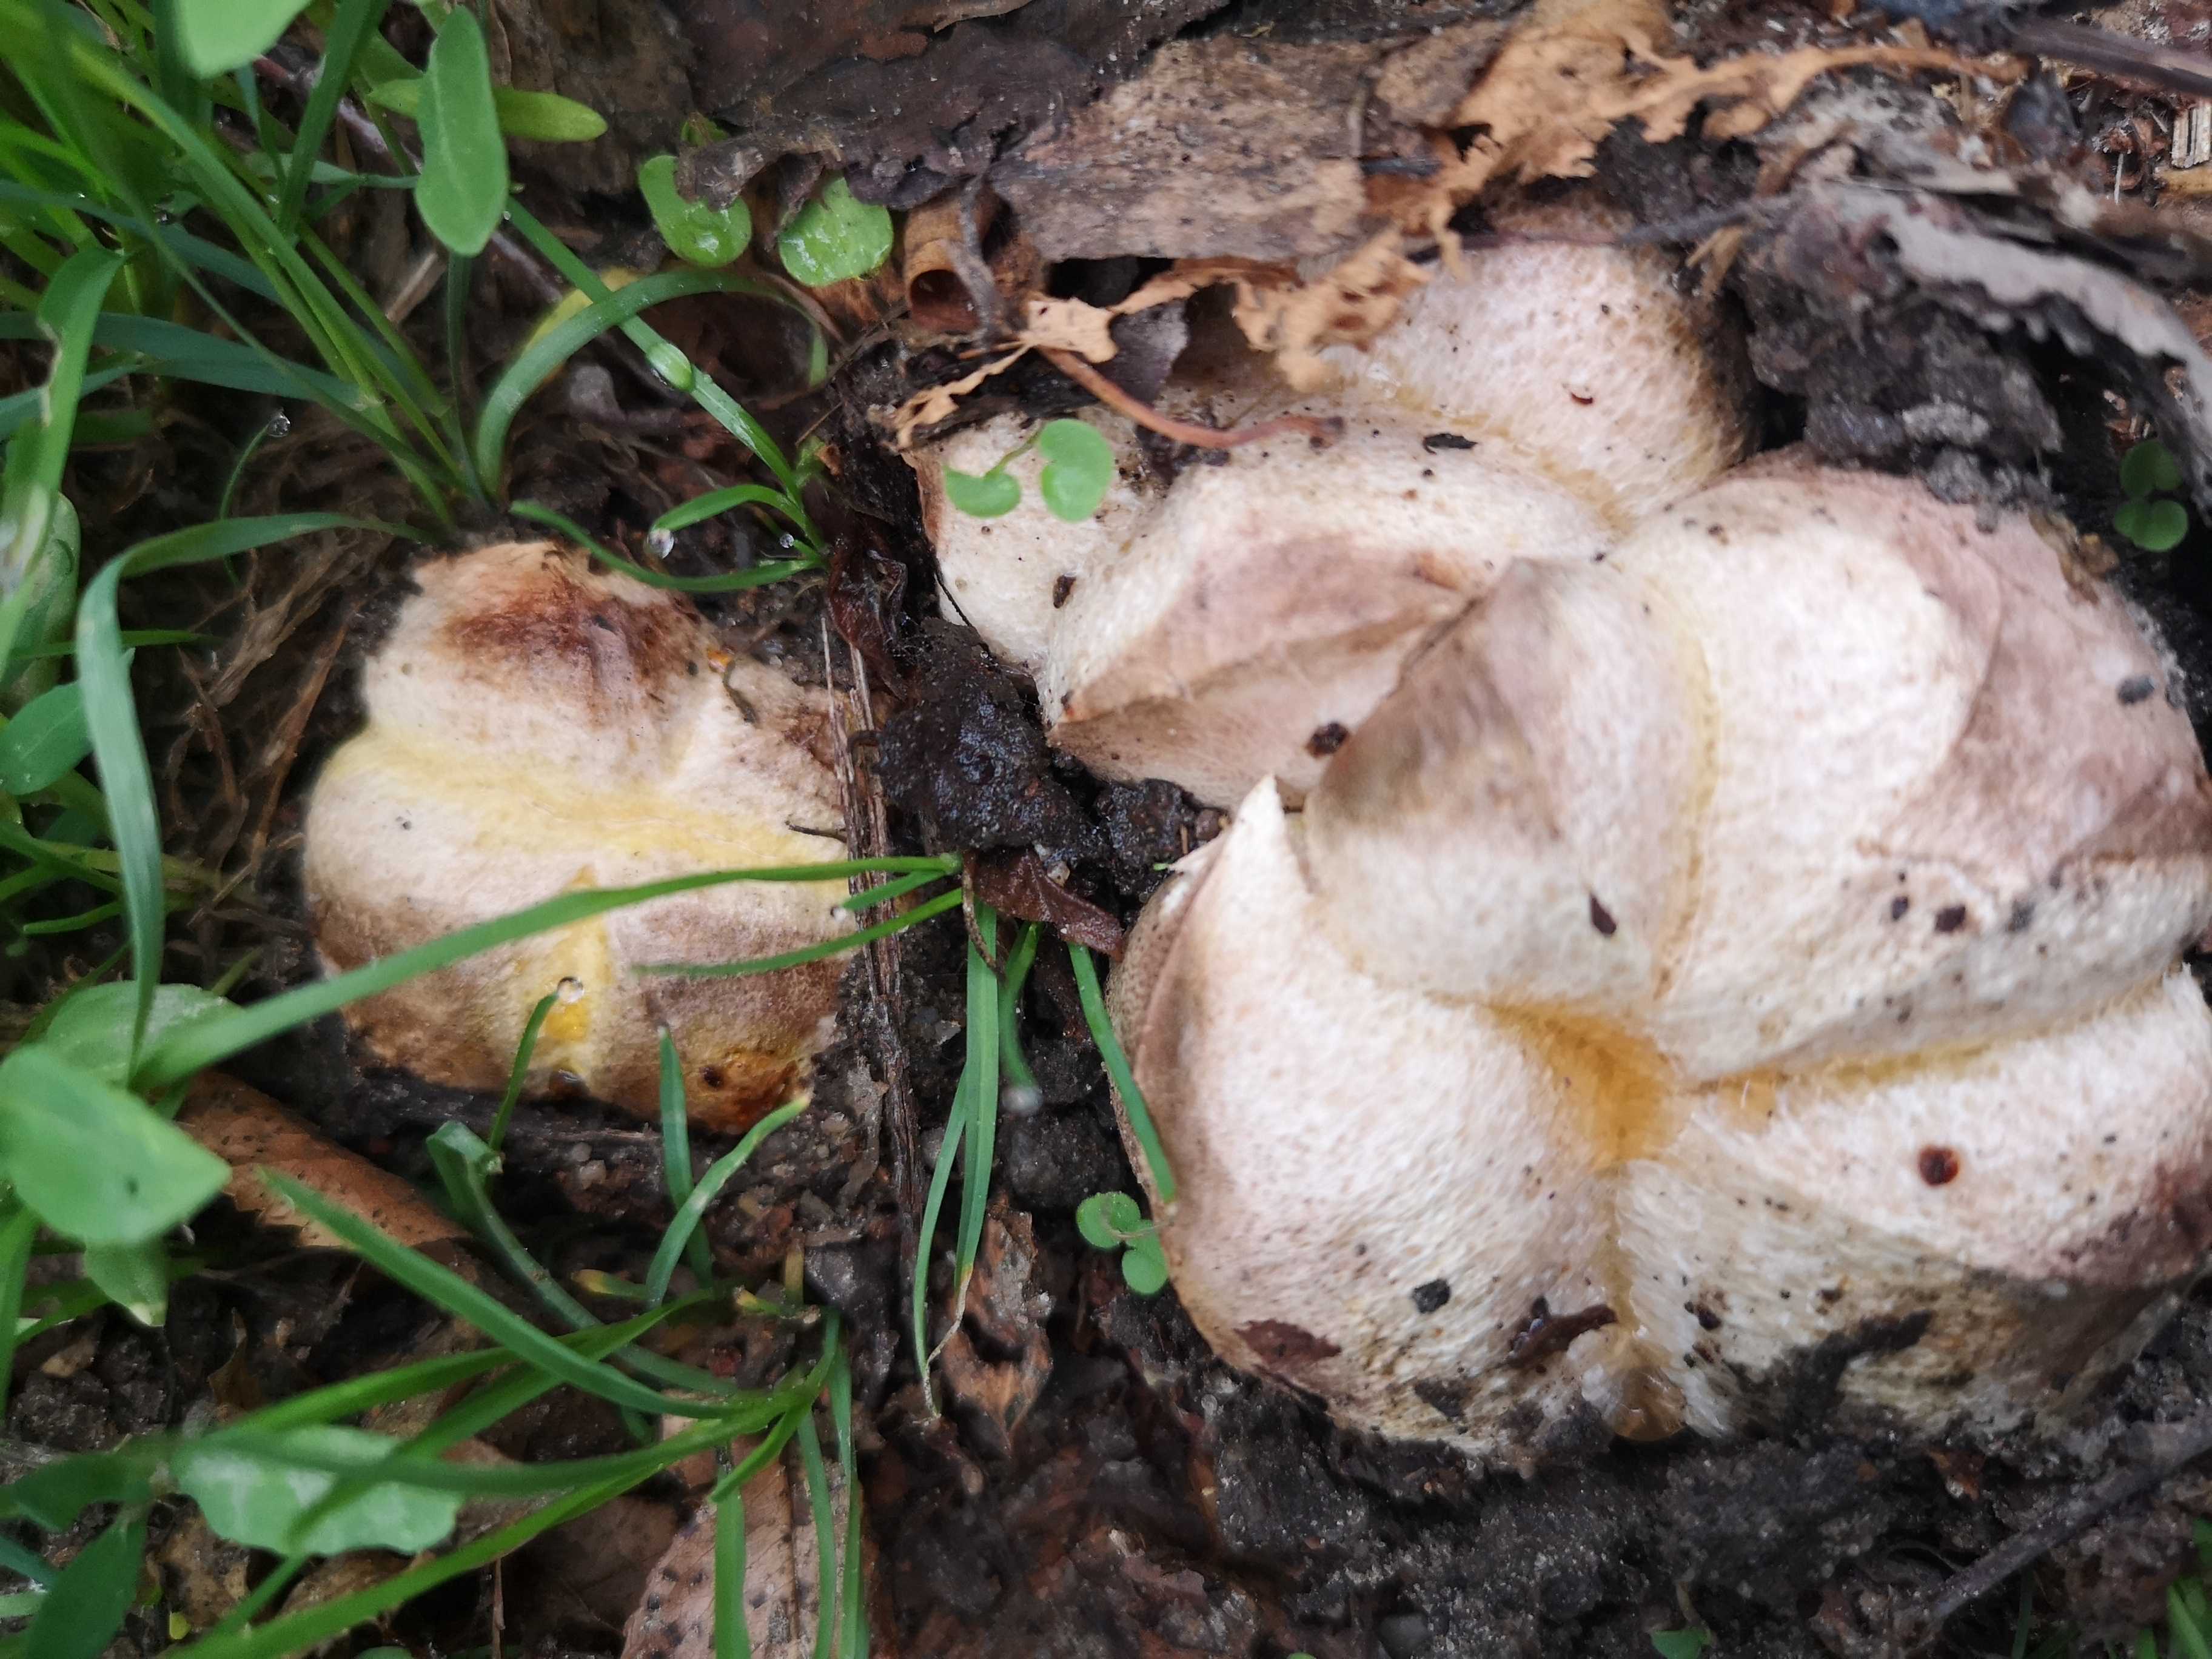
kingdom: Fungi
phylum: Basidiomycota
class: Agaricomycetes
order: Boletales
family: Sclerodermataceae
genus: Scleroderma
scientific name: Scleroderma
